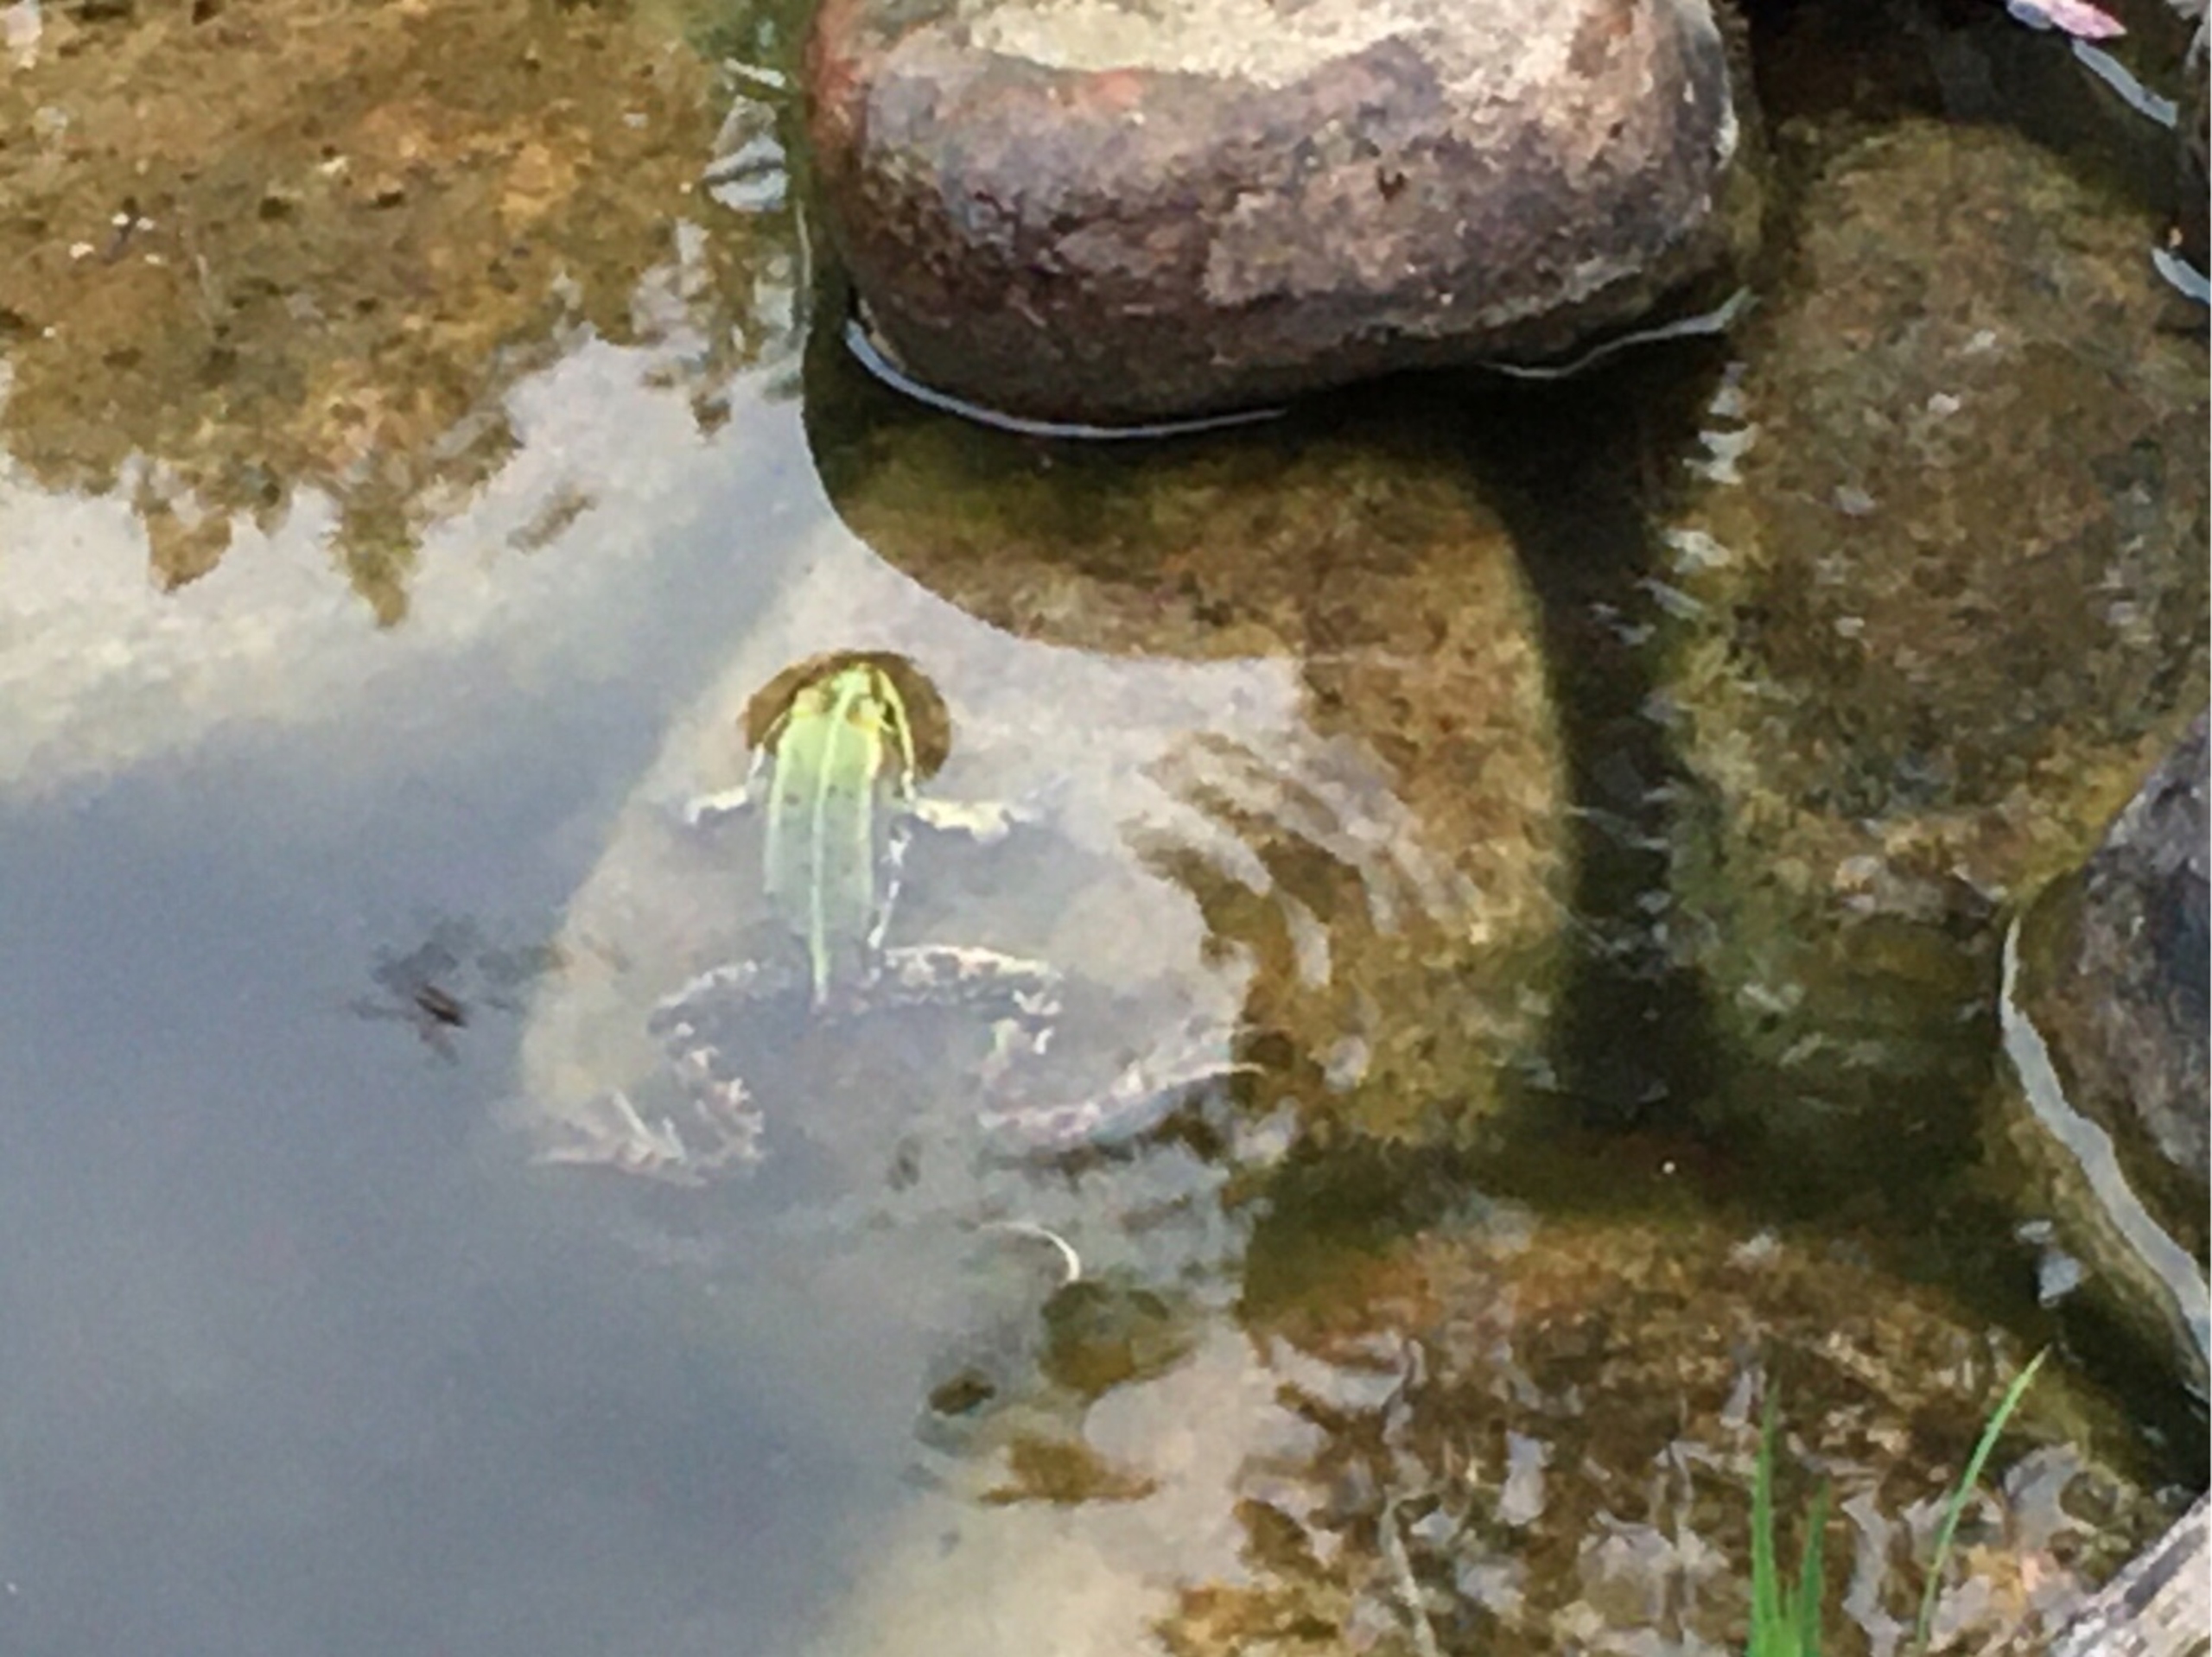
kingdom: Animalia
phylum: Chordata
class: Amphibia
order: Anura
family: Ranidae
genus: Pelophylax
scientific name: Pelophylax lessonae
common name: Grøn frø
